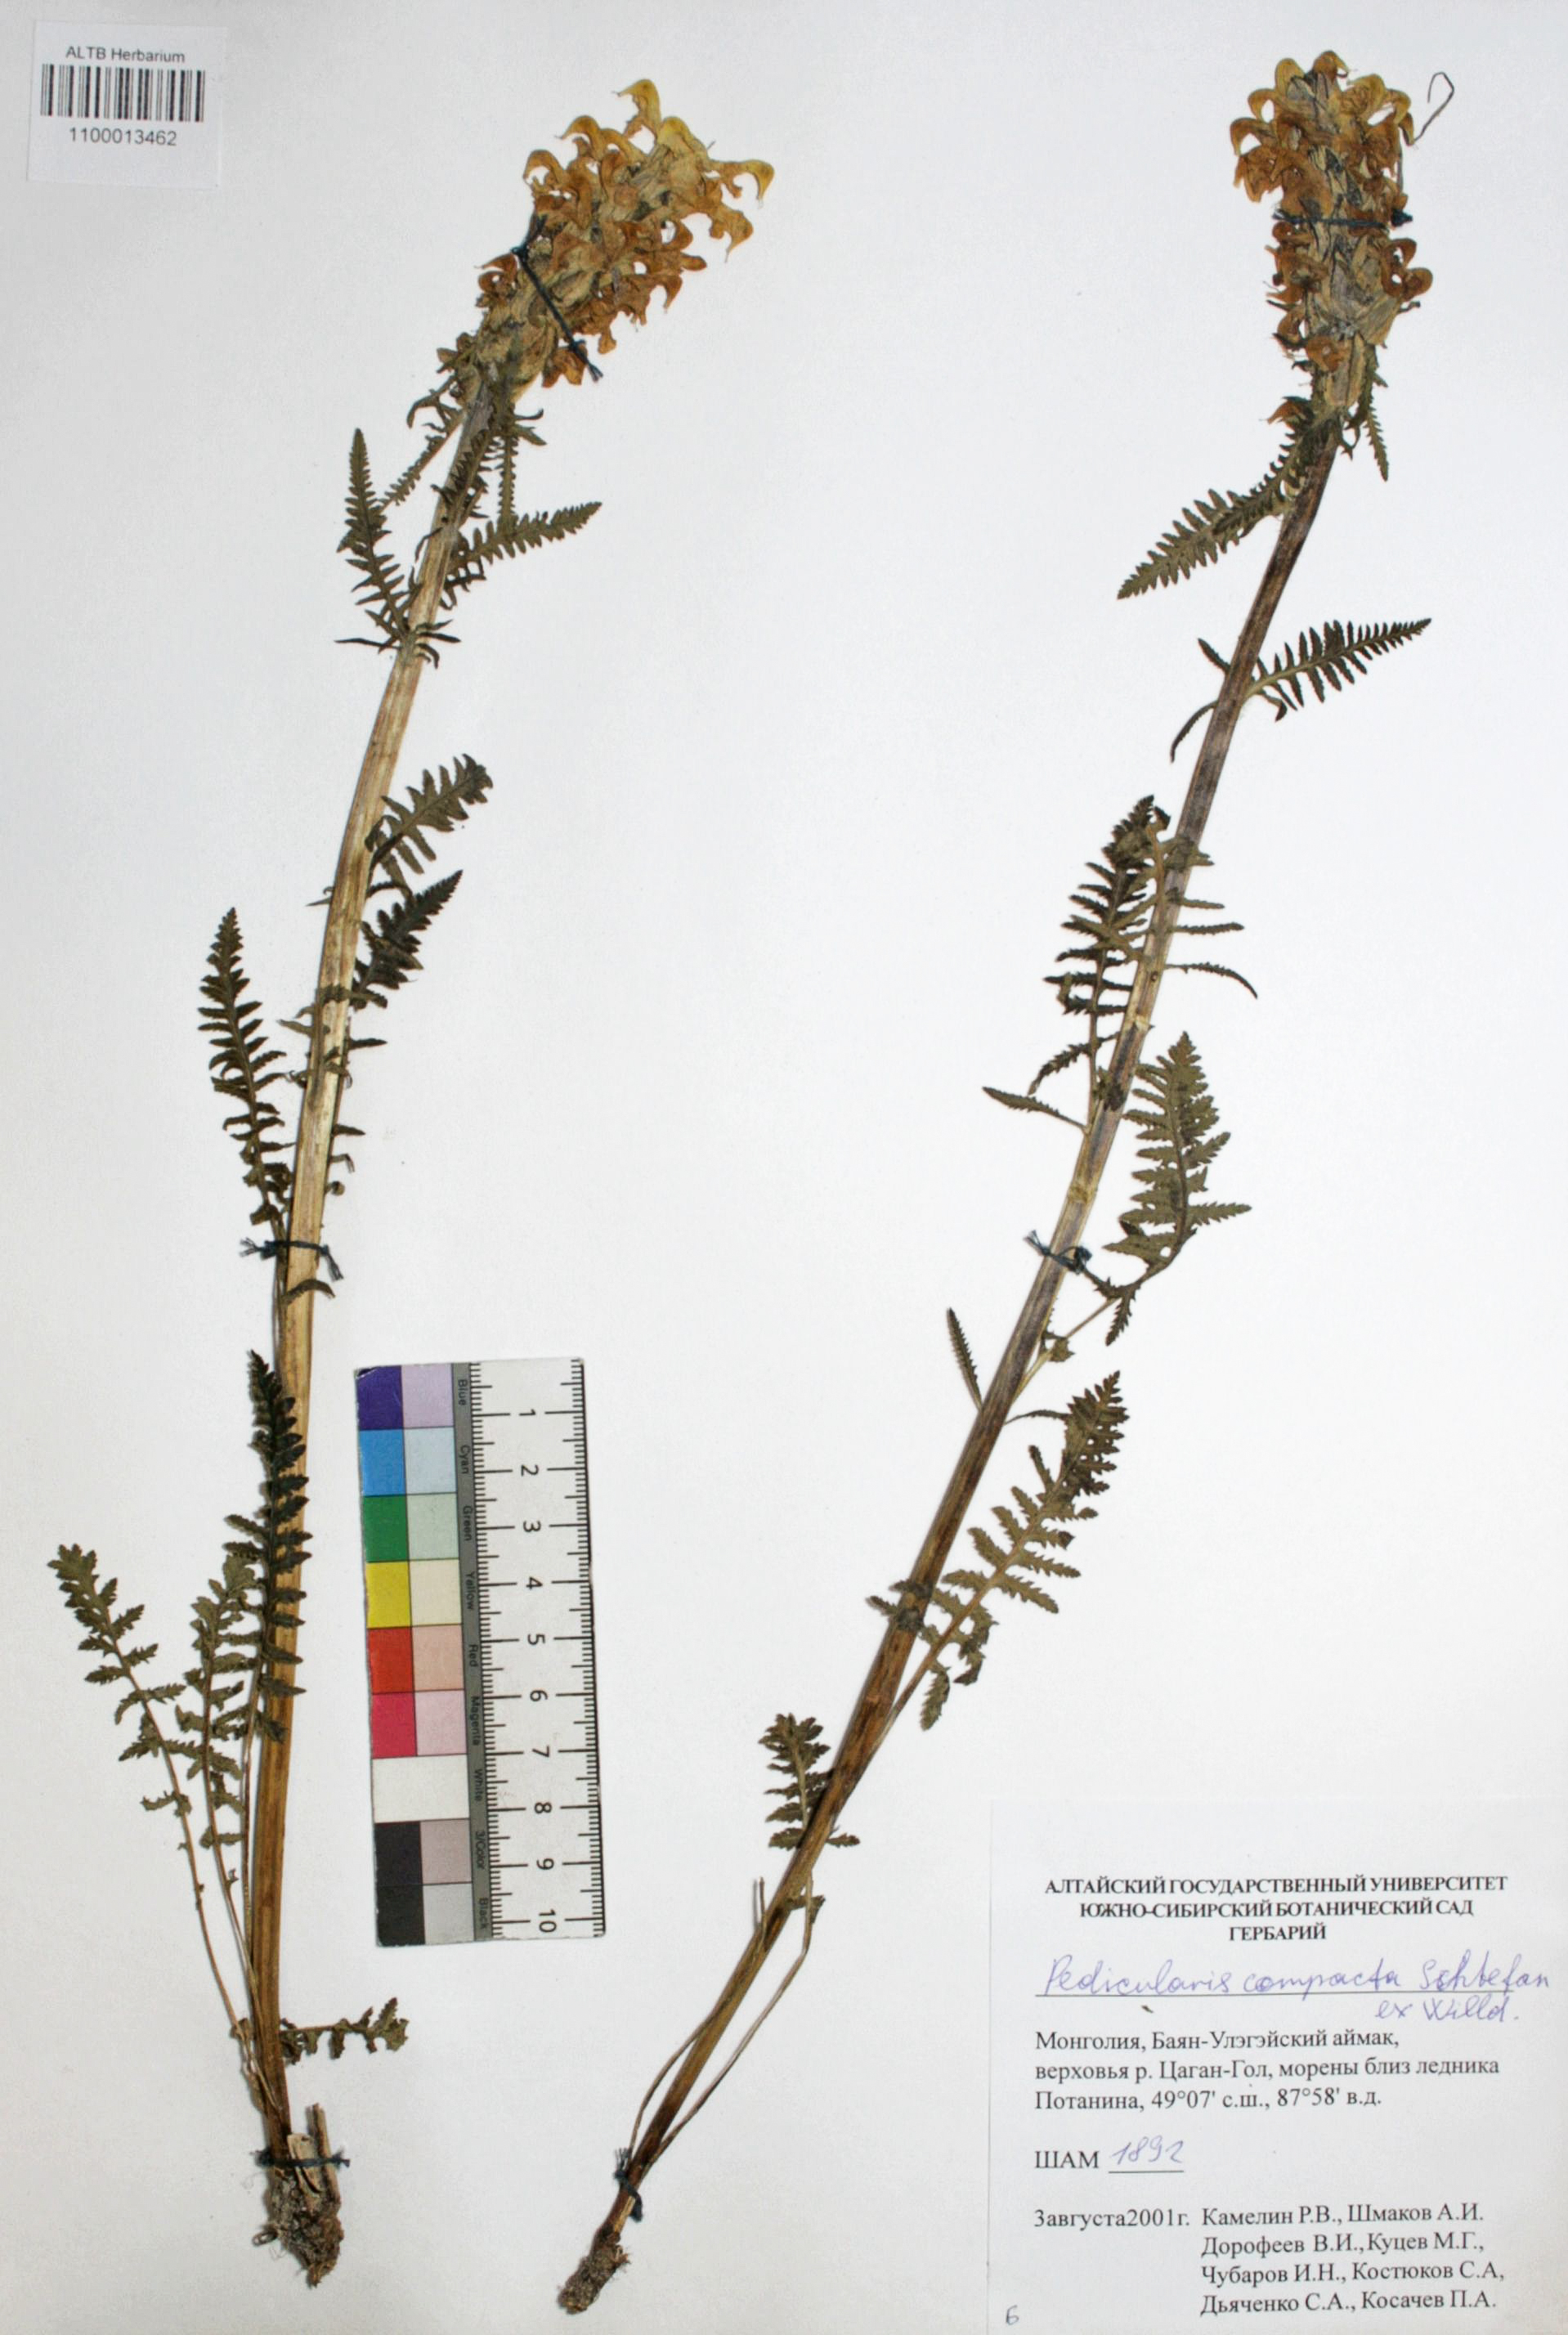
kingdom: Plantae
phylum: Tracheophyta
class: Magnoliopsida
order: Lamiales
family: Orobanchaceae
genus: Pedicularis
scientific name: Pedicularis compacta
